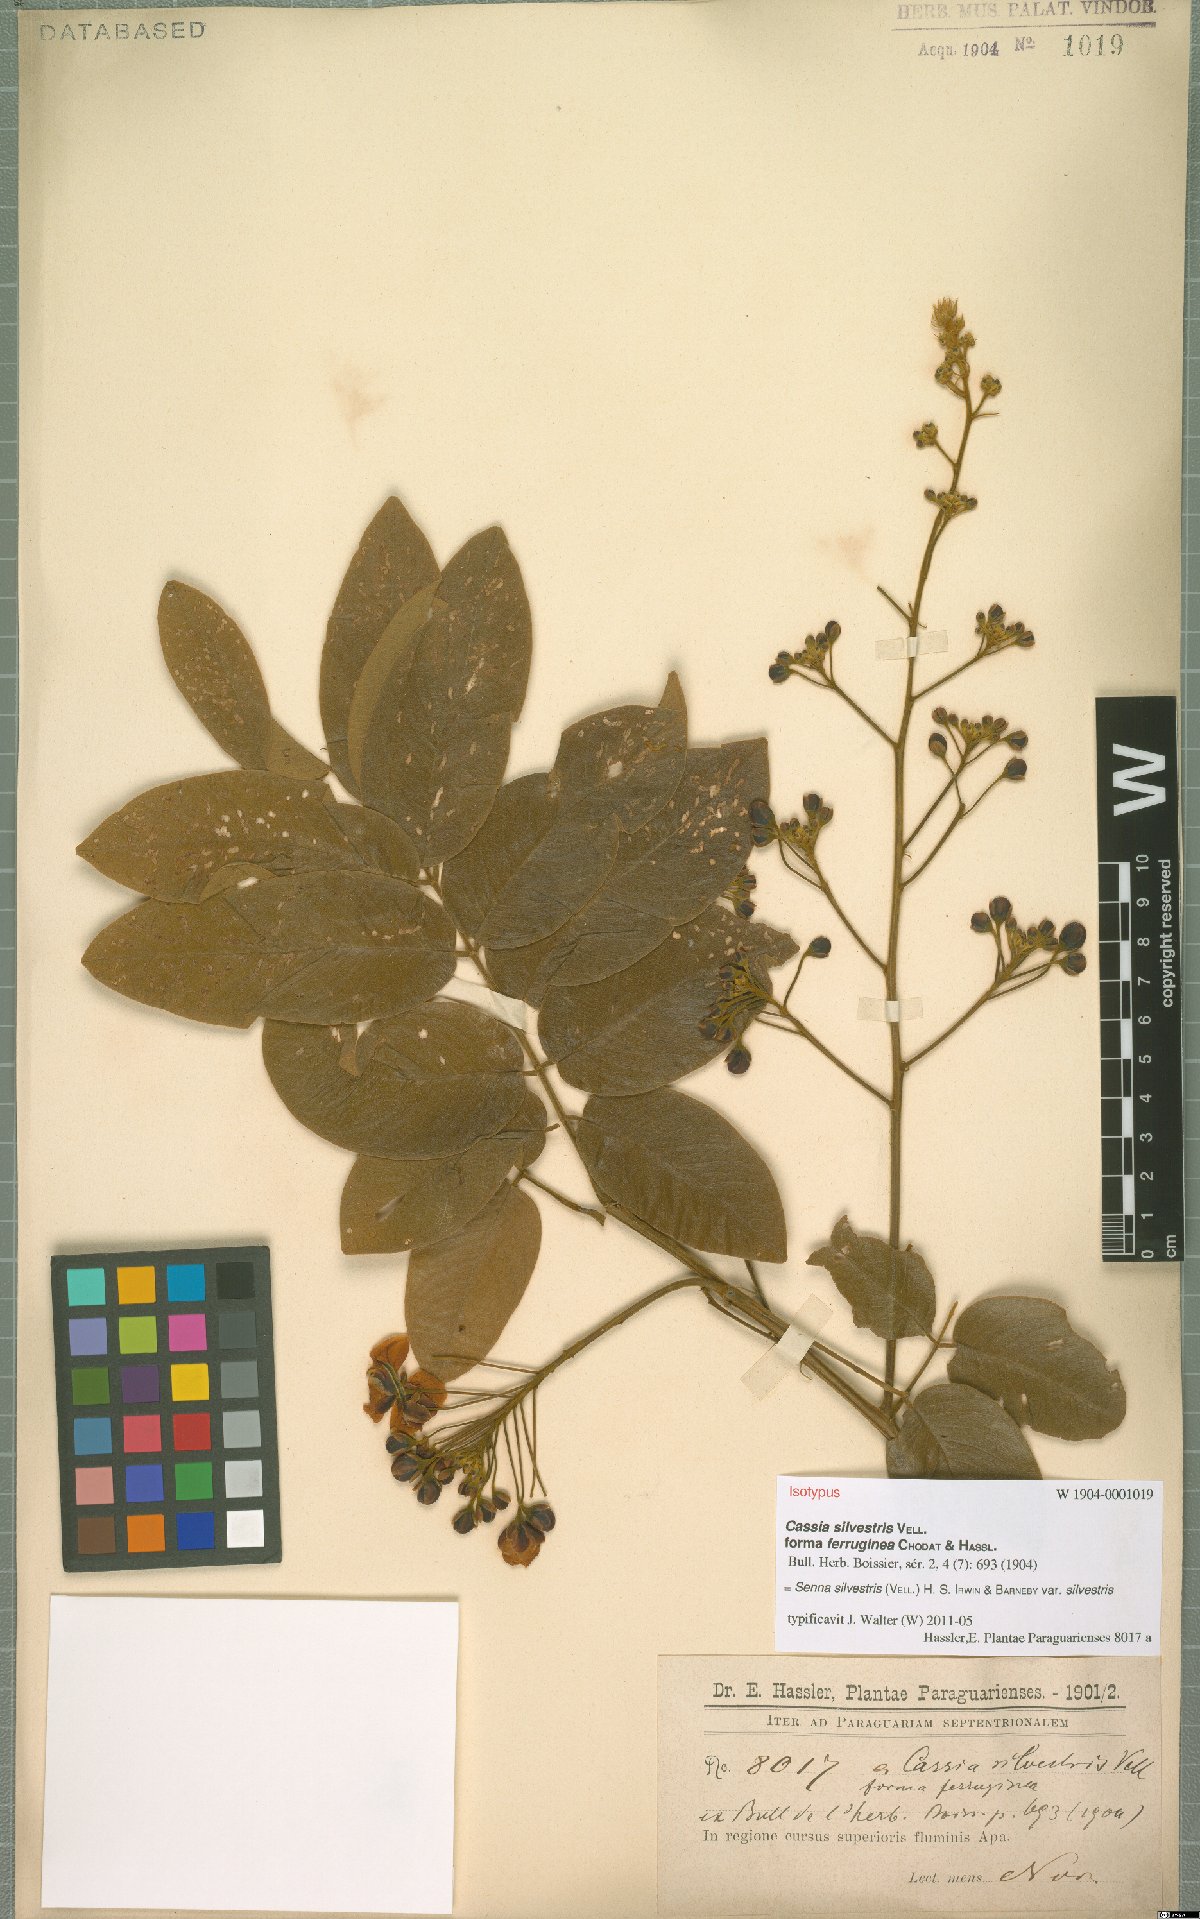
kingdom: Plantae
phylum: Tracheophyta
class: Magnoliopsida
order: Fabales
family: Fabaceae
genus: Senna
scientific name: Senna silvestris
